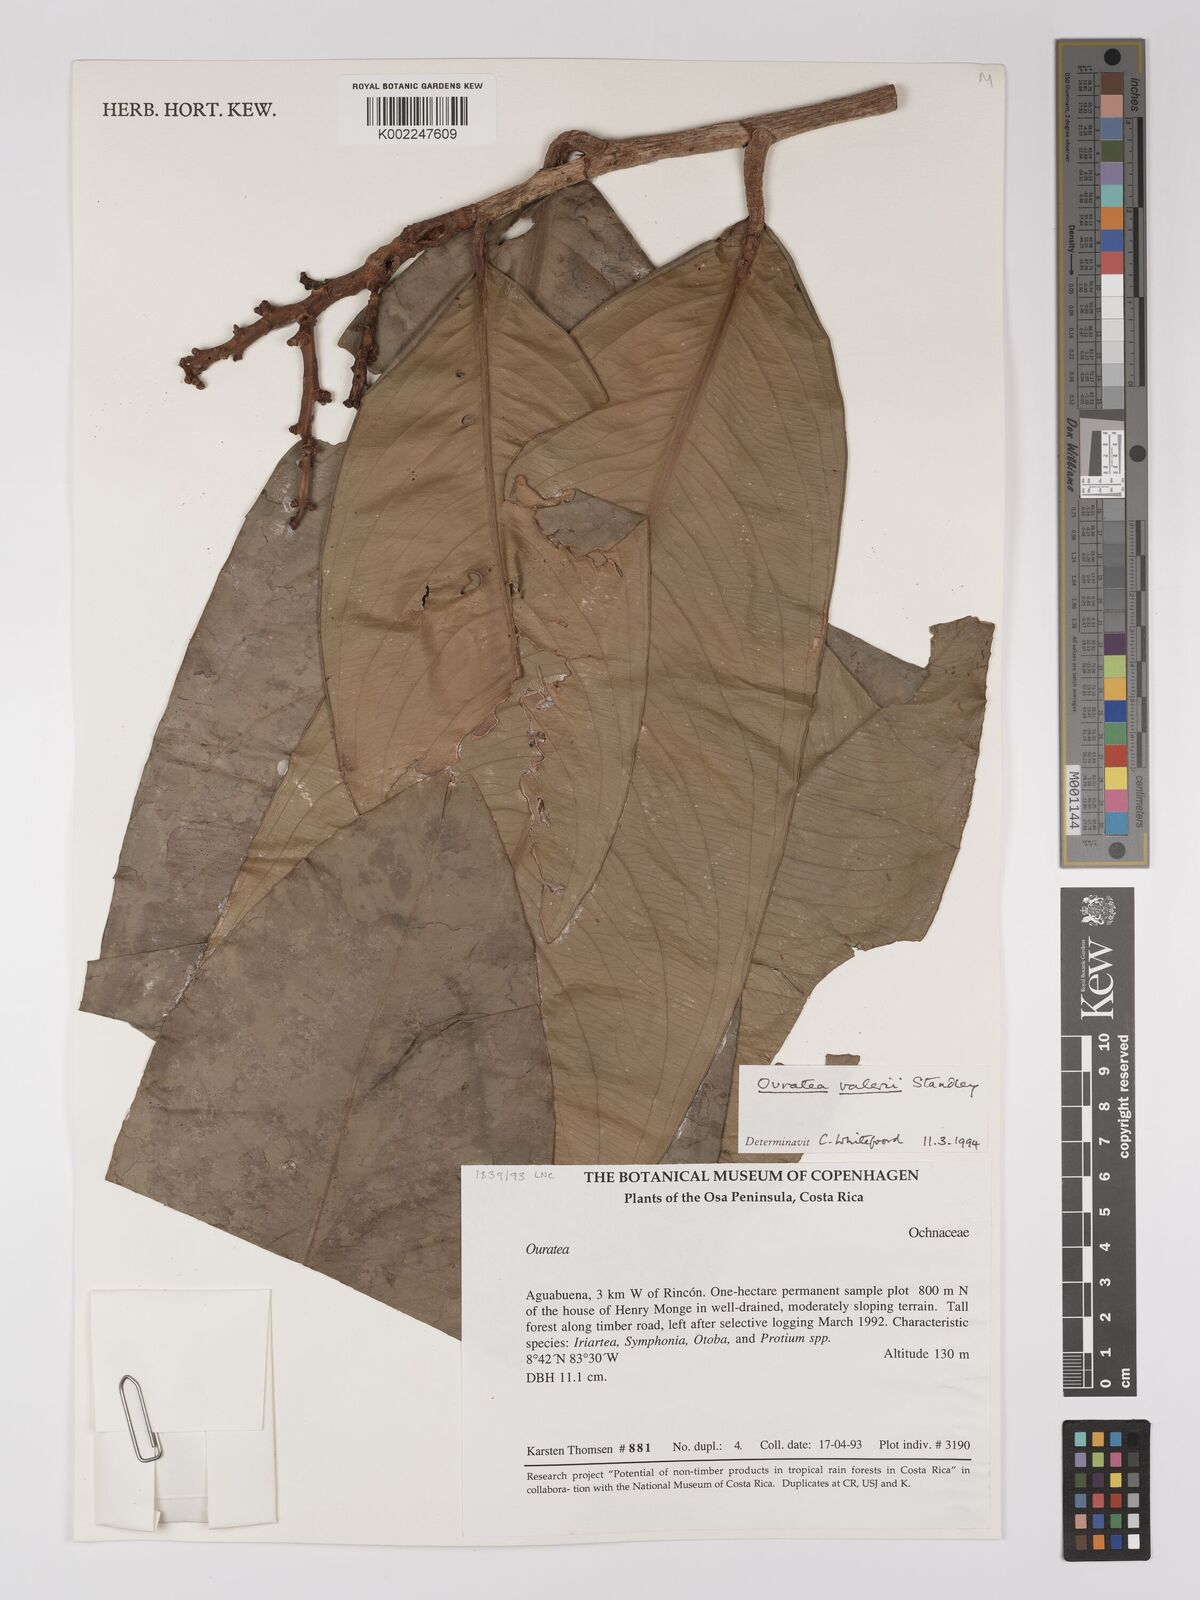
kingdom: Plantae
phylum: Tracheophyta
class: Magnoliopsida
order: Malpighiales
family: Ochnaceae
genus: Ouratea
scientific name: Ouratea valerioi
